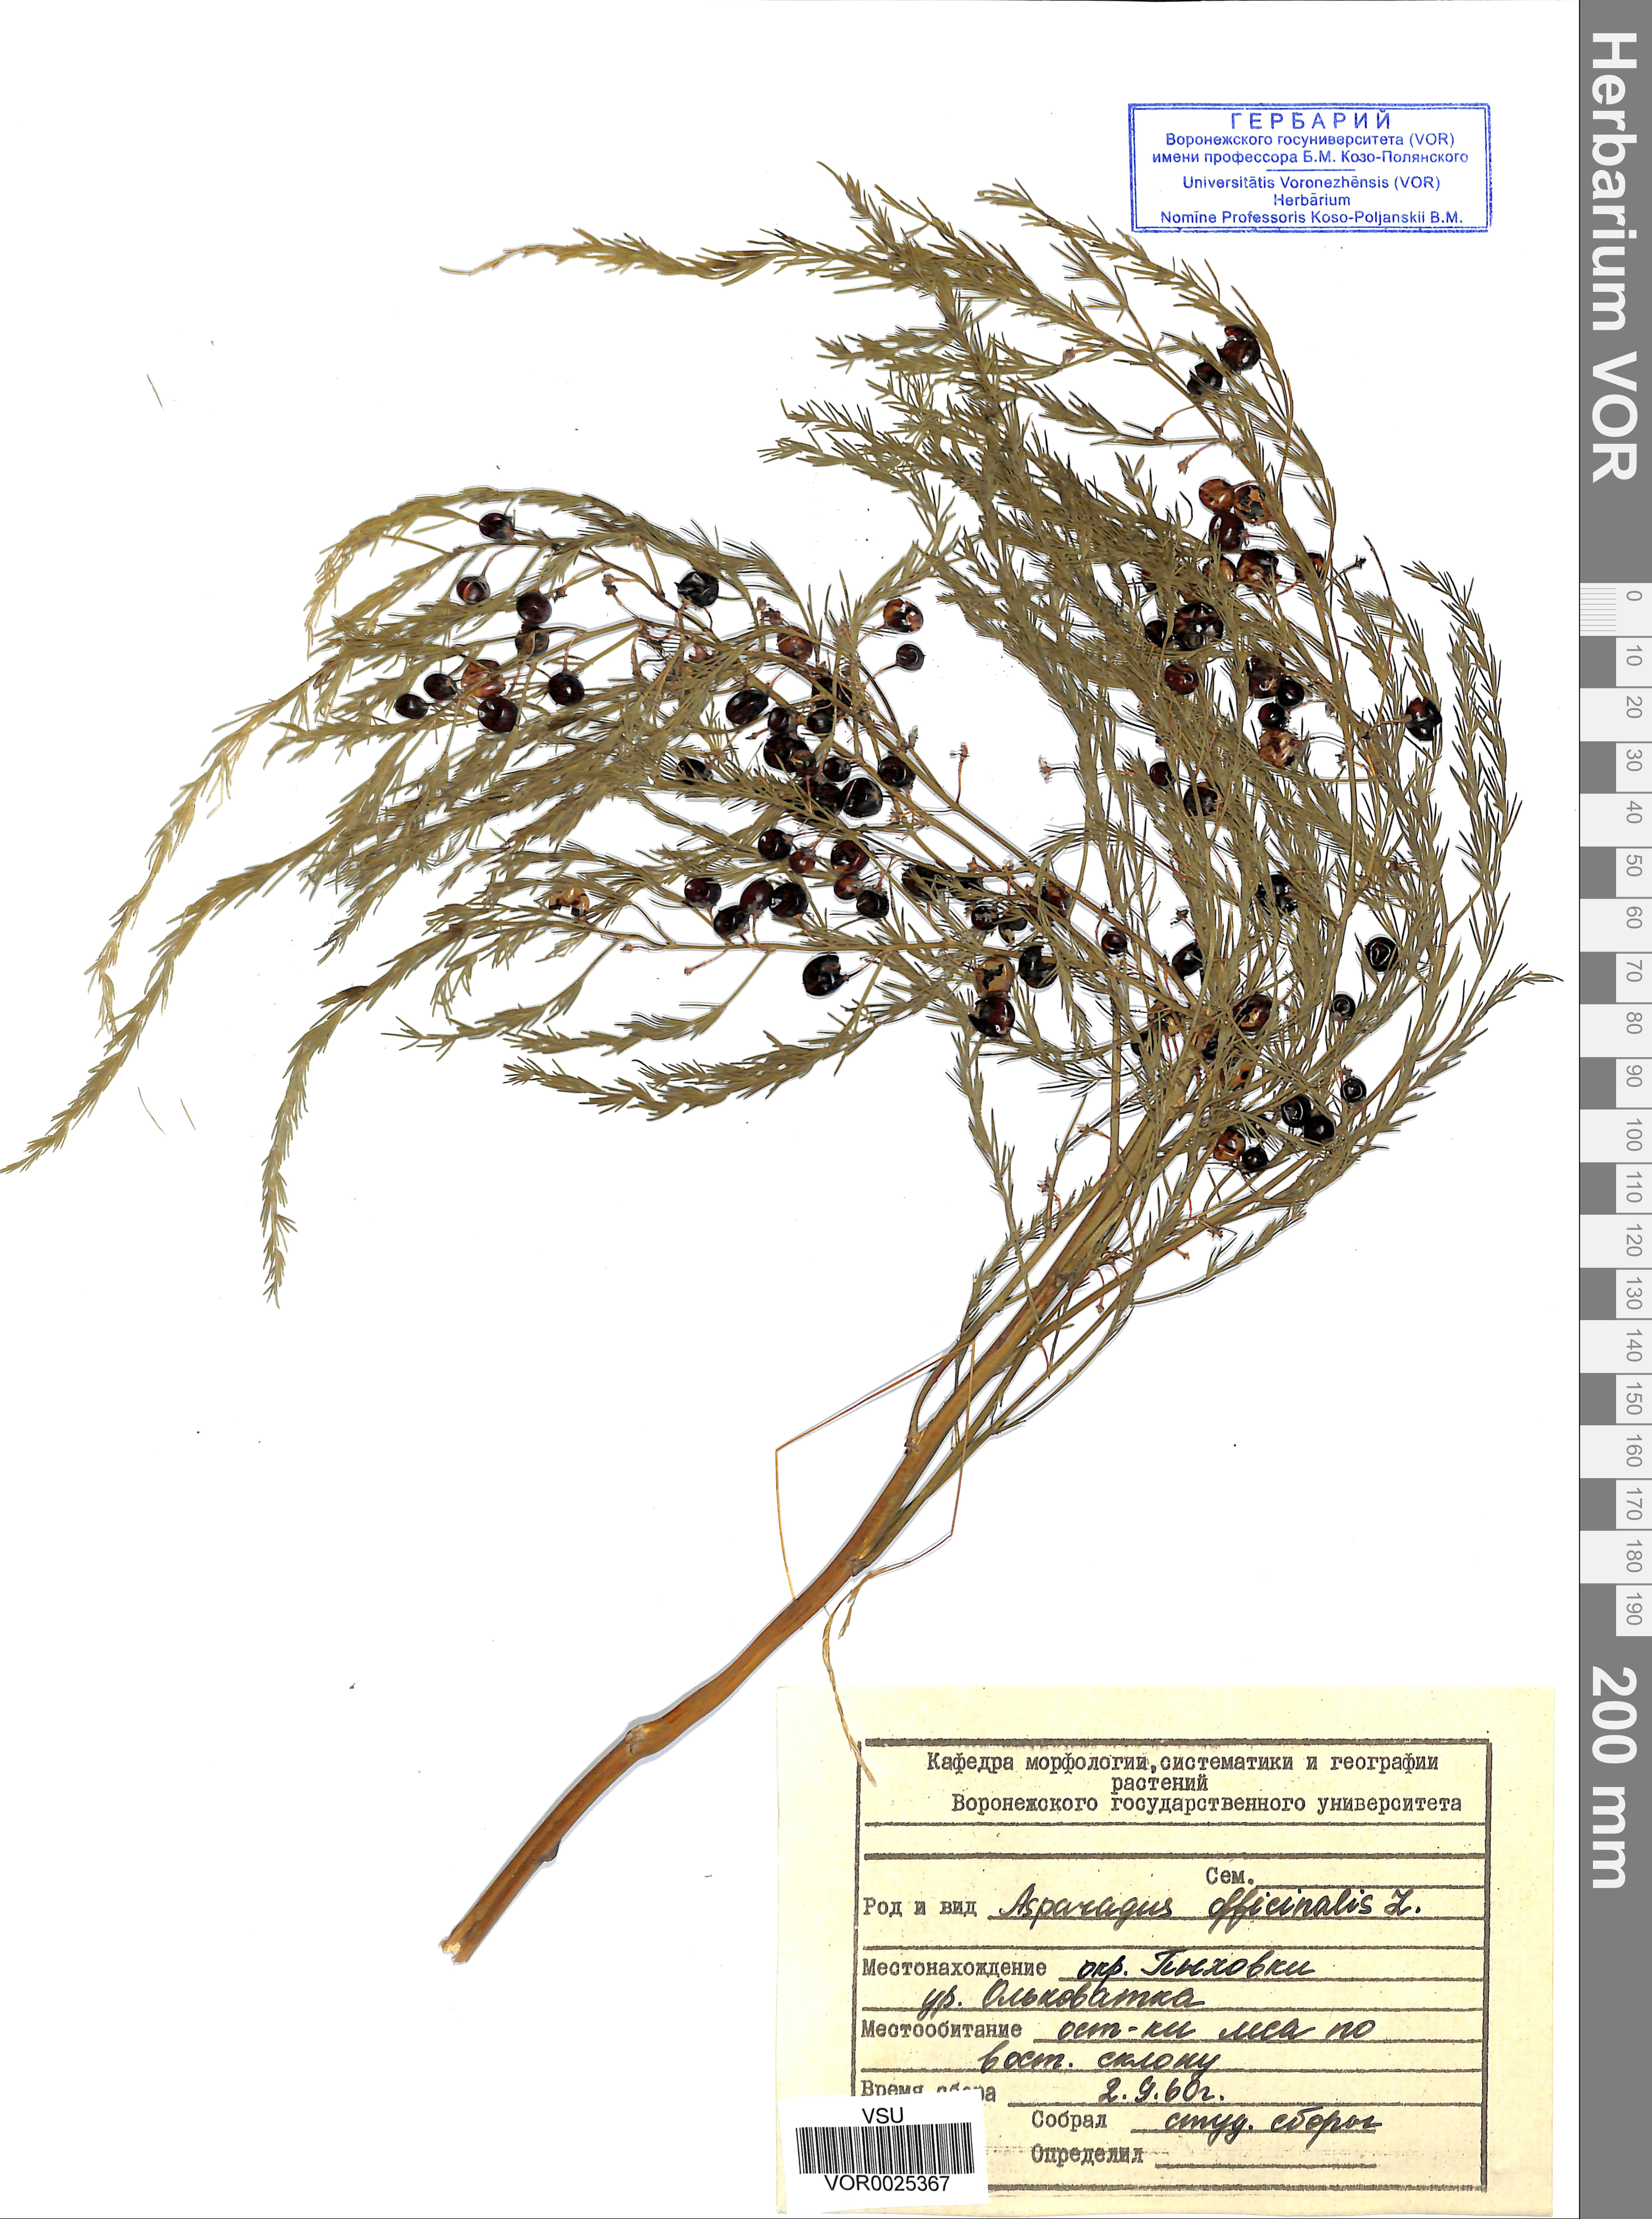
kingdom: Plantae
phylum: Tracheophyta
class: Liliopsida
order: Asparagales
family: Asparagaceae
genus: Asparagus
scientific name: Asparagus officinalis
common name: Garden asparagus
